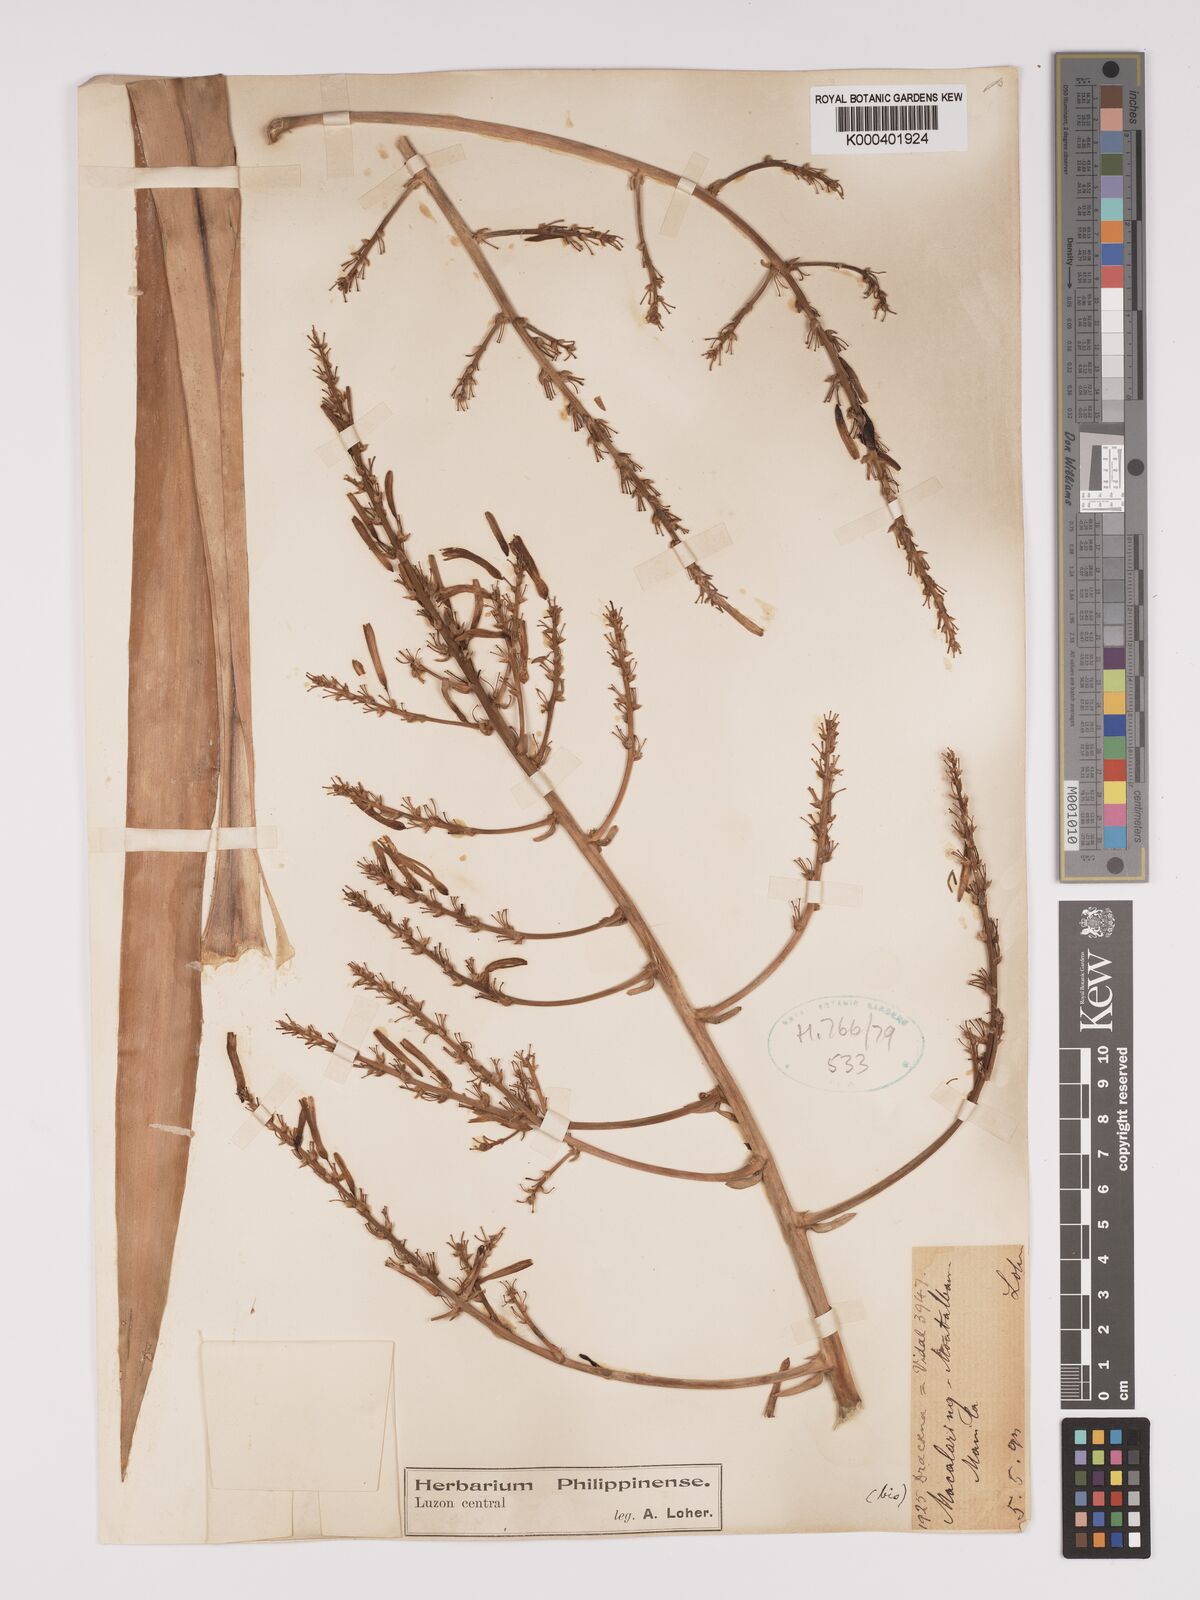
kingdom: Plantae
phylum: Tracheophyta
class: Liliopsida
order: Asparagales
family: Asparagaceae
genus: Dracaena
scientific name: Dracaena
